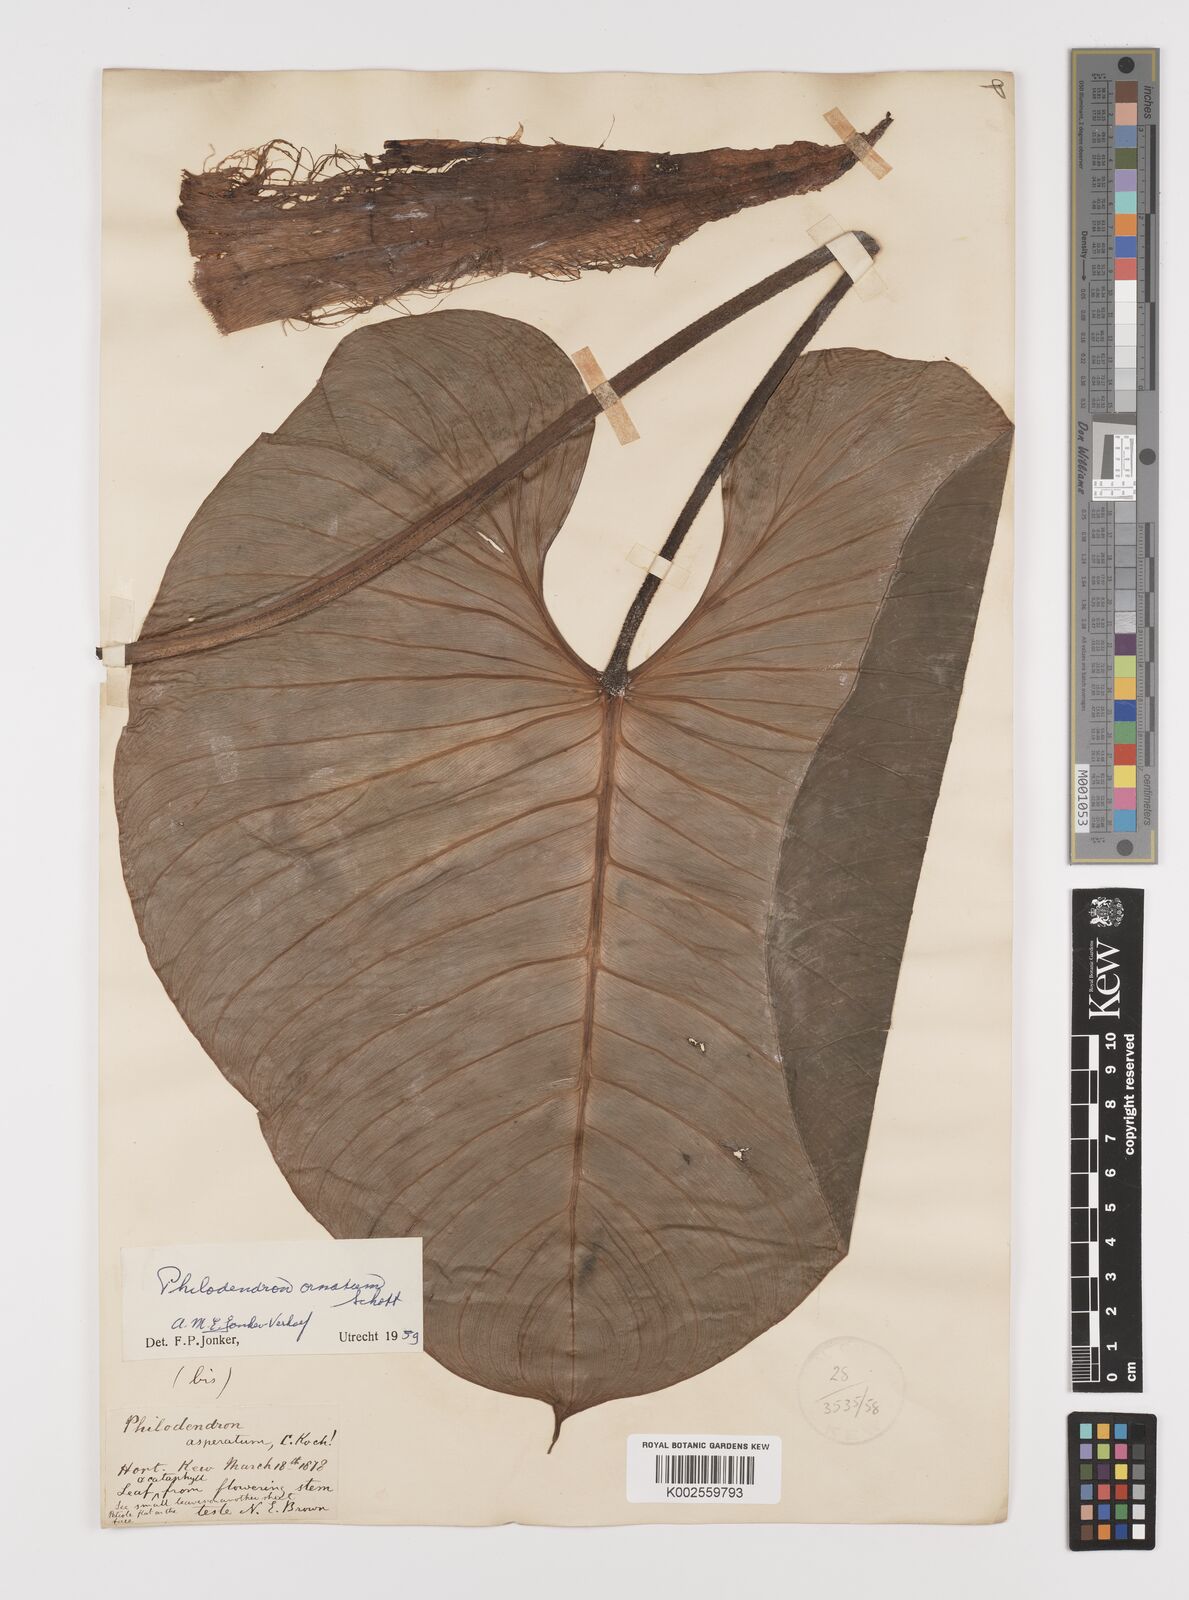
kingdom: Plantae
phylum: Tracheophyta
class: Liliopsida
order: Alismatales
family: Araceae
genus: Philodendron
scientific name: Philodendron ornatum
